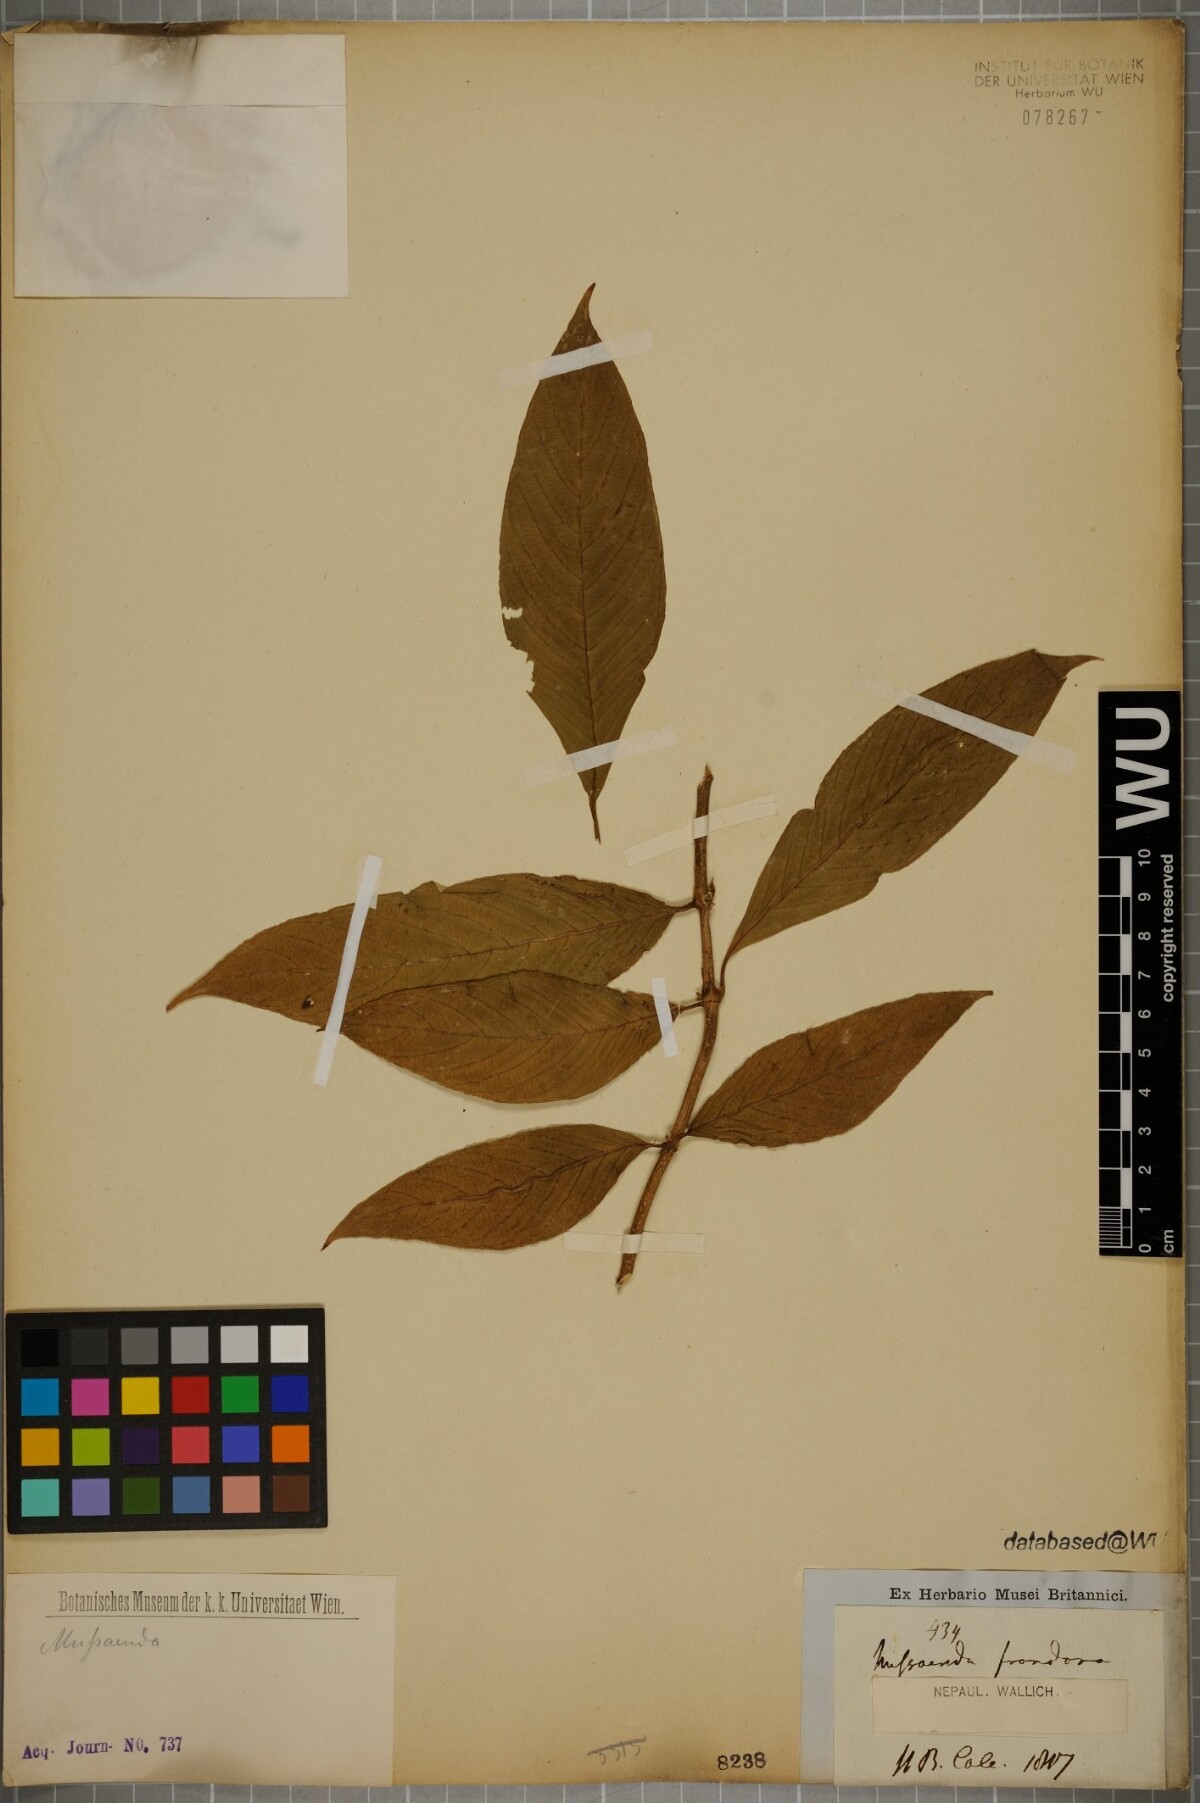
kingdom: Plantae
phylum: Tracheophyta
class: Magnoliopsida
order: Gentianales
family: Rubiaceae
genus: Mussaenda
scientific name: Mussaenda frondosa
